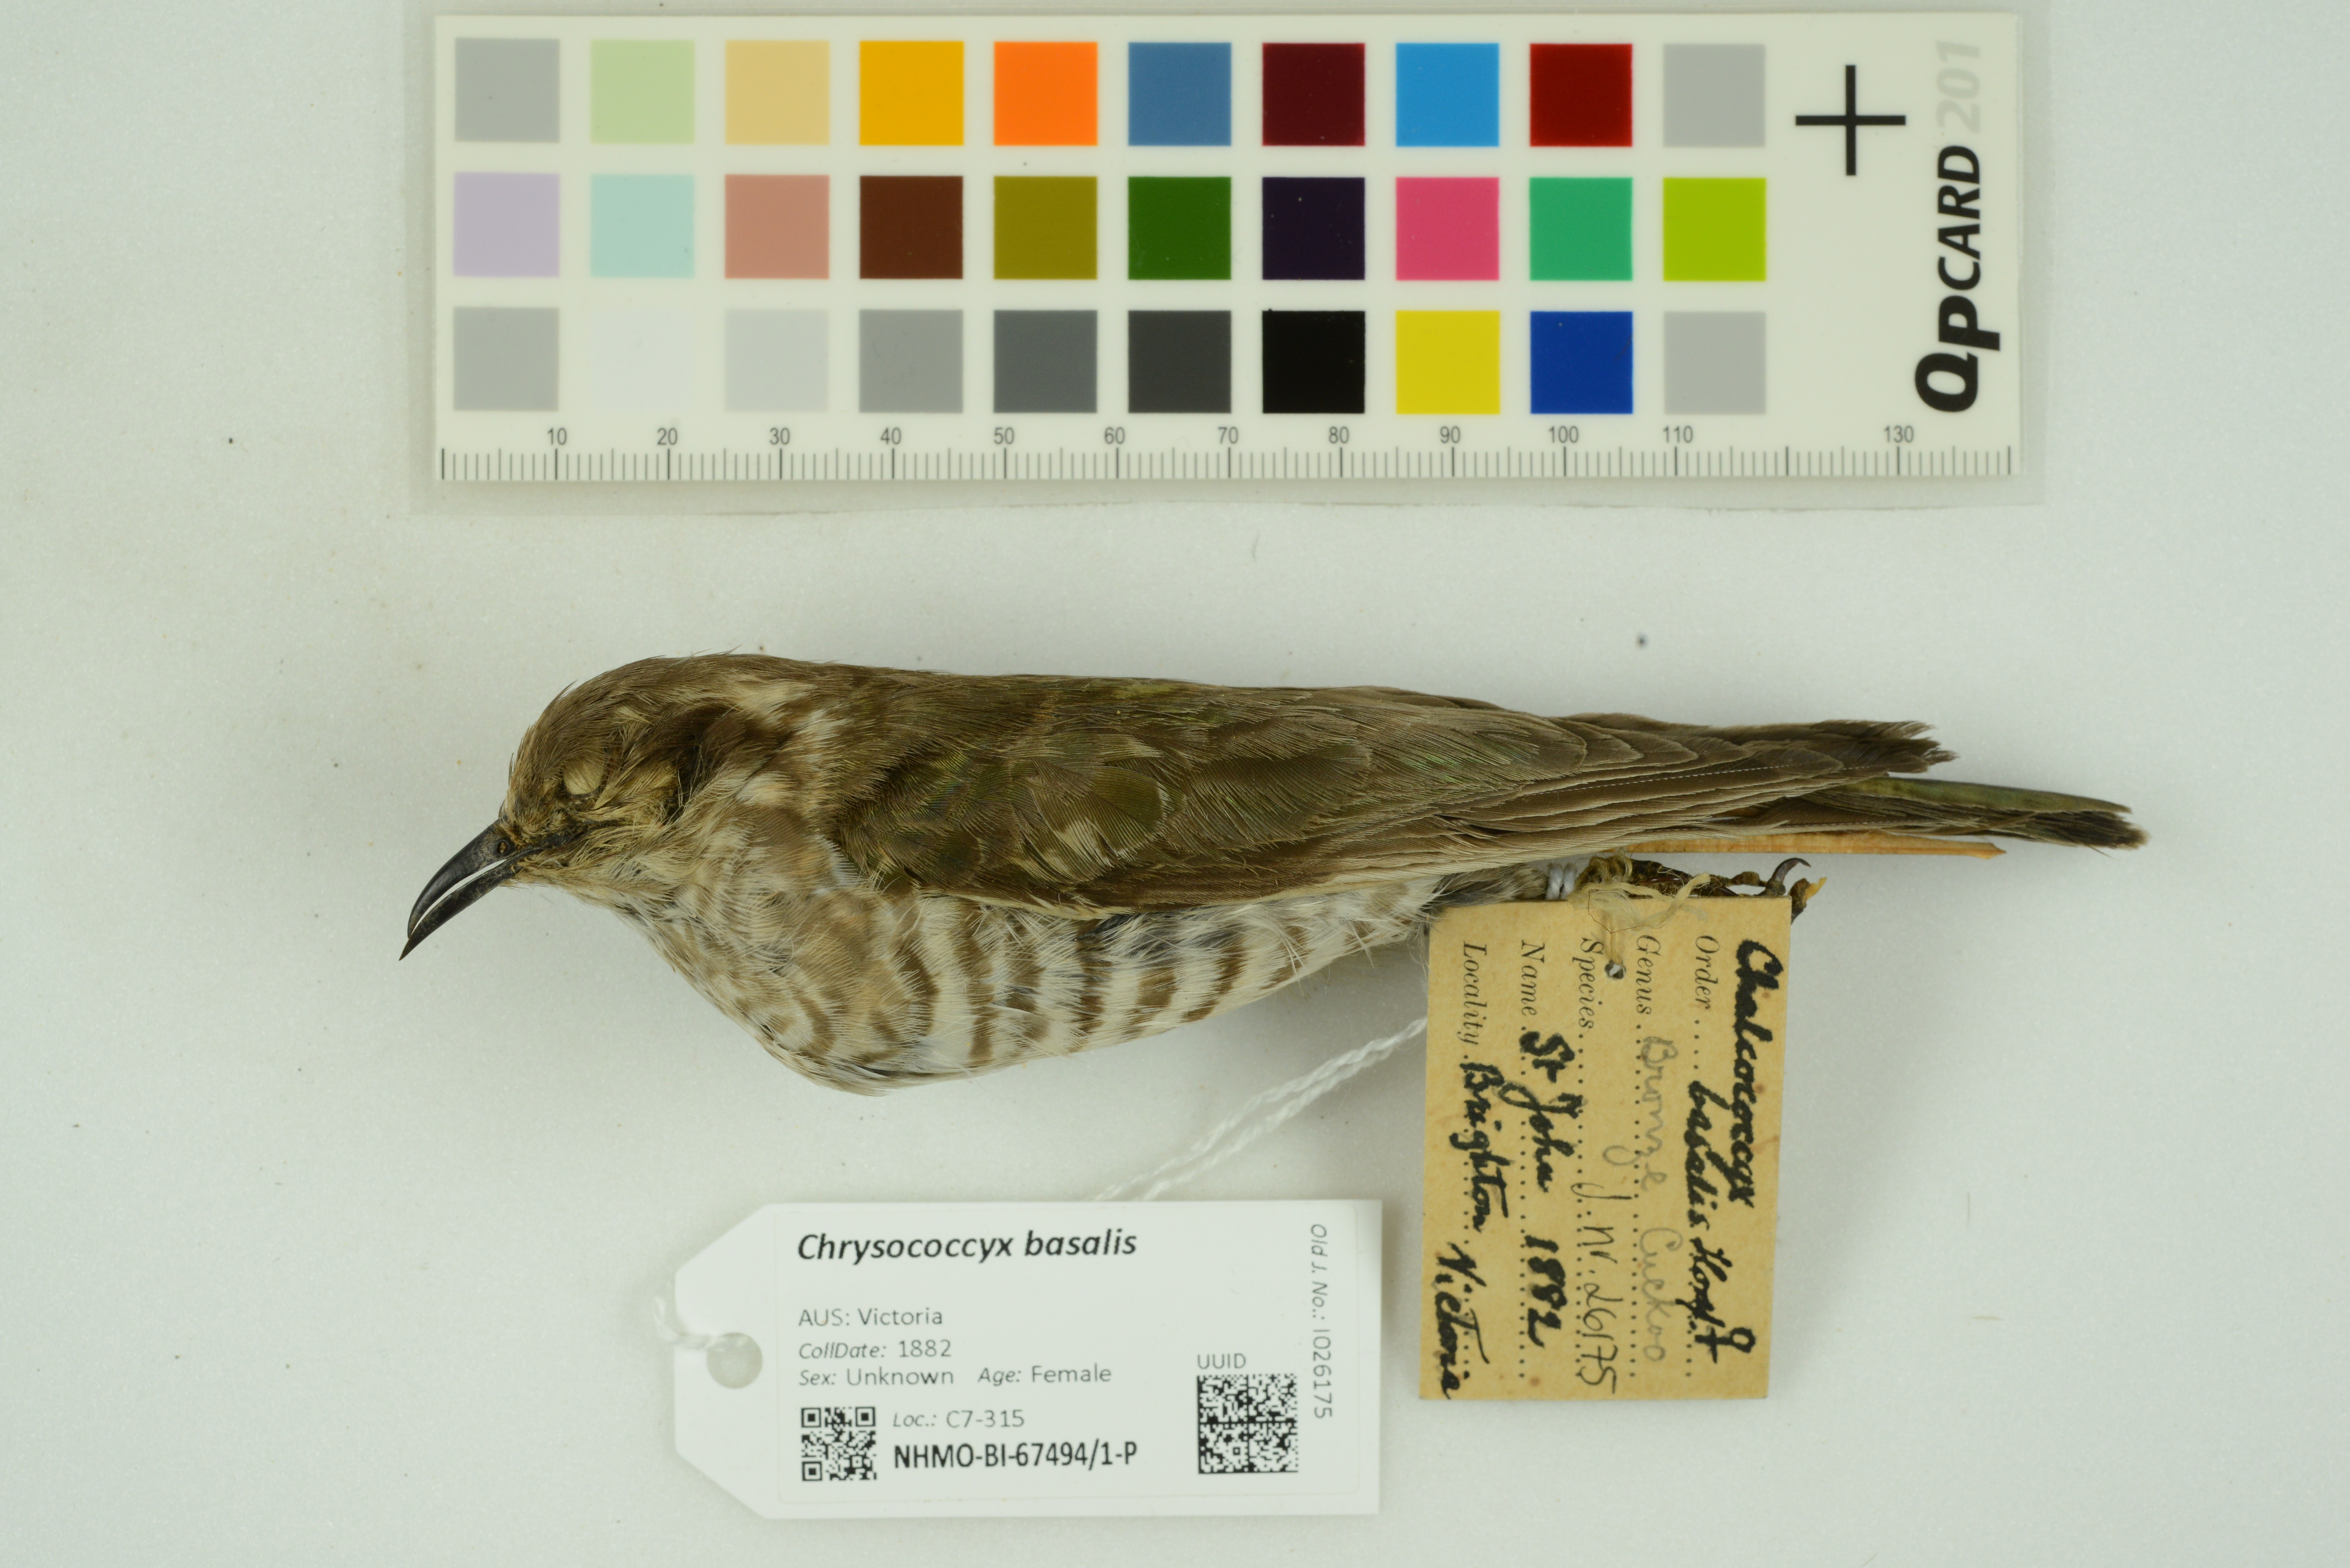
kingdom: Animalia
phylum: Chordata
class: Aves
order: Cuculiformes
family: Cuculidae
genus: Chrysococcyx
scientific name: Chrysococcyx basalis
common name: Horsfield's bronze cuckoo
